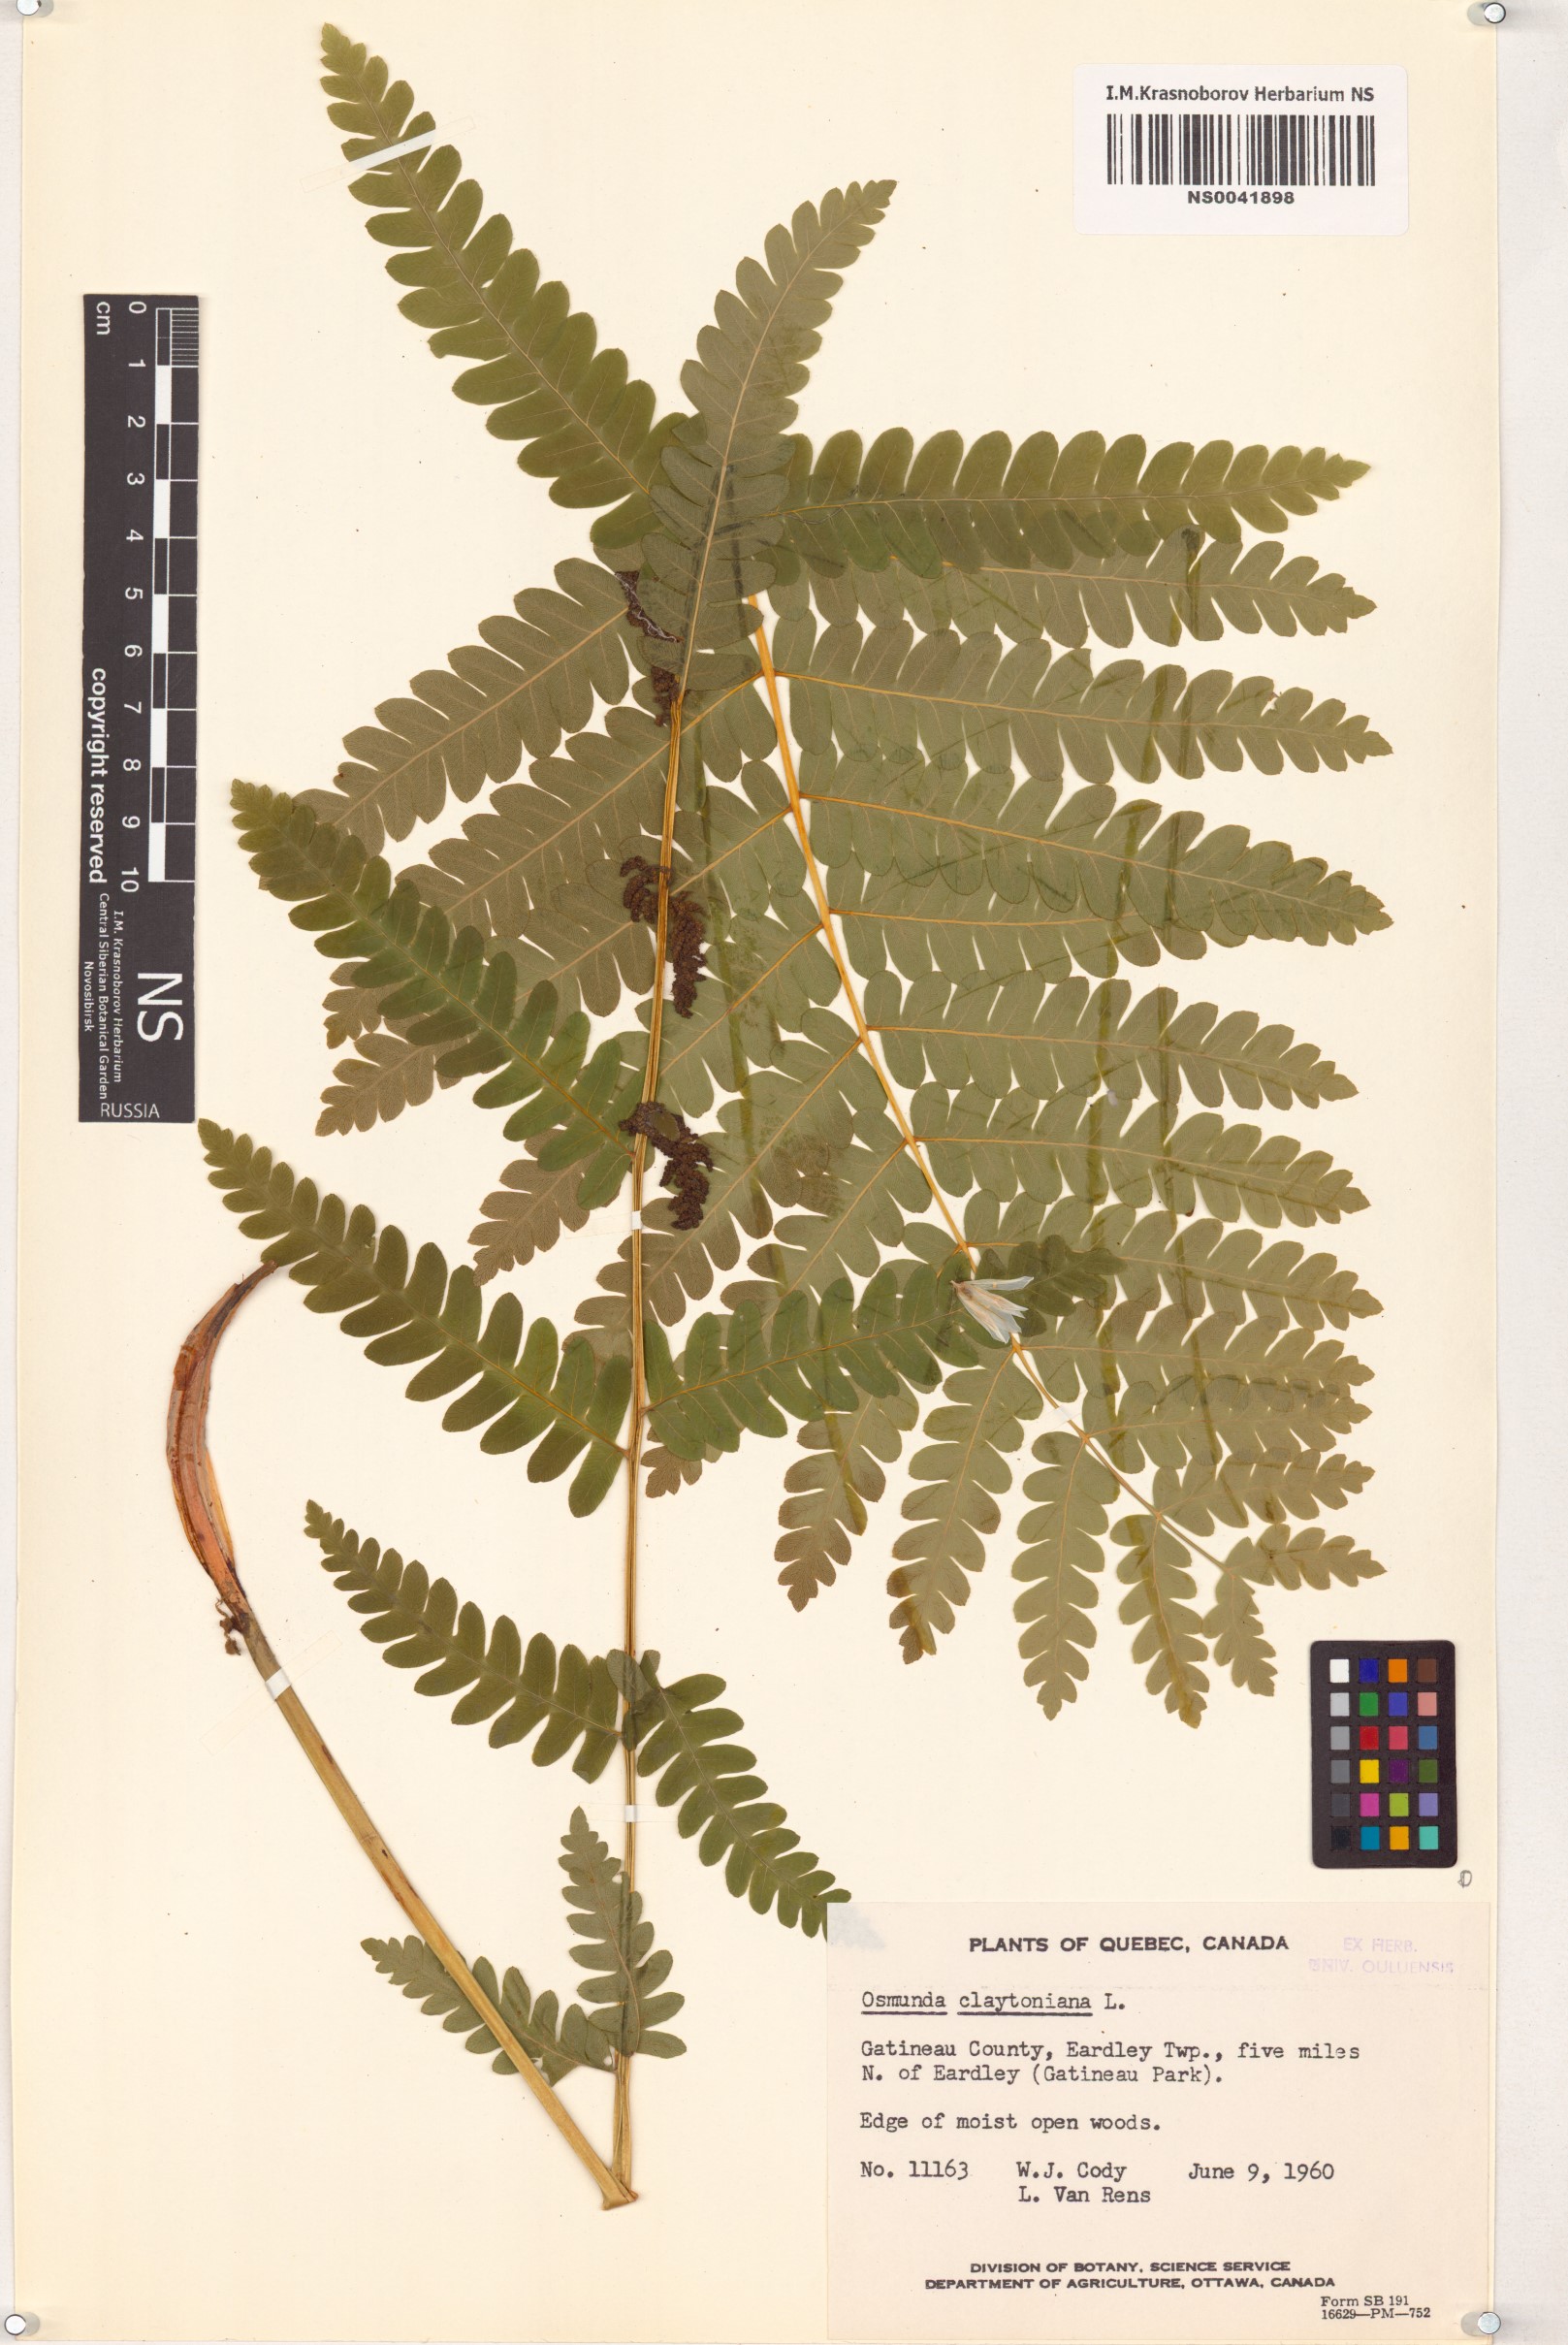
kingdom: Plantae
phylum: Tracheophyta
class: Polypodiopsida
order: Osmundales
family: Osmundaceae
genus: Claytosmunda
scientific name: Claytosmunda claytoniana
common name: Clayton's fern
